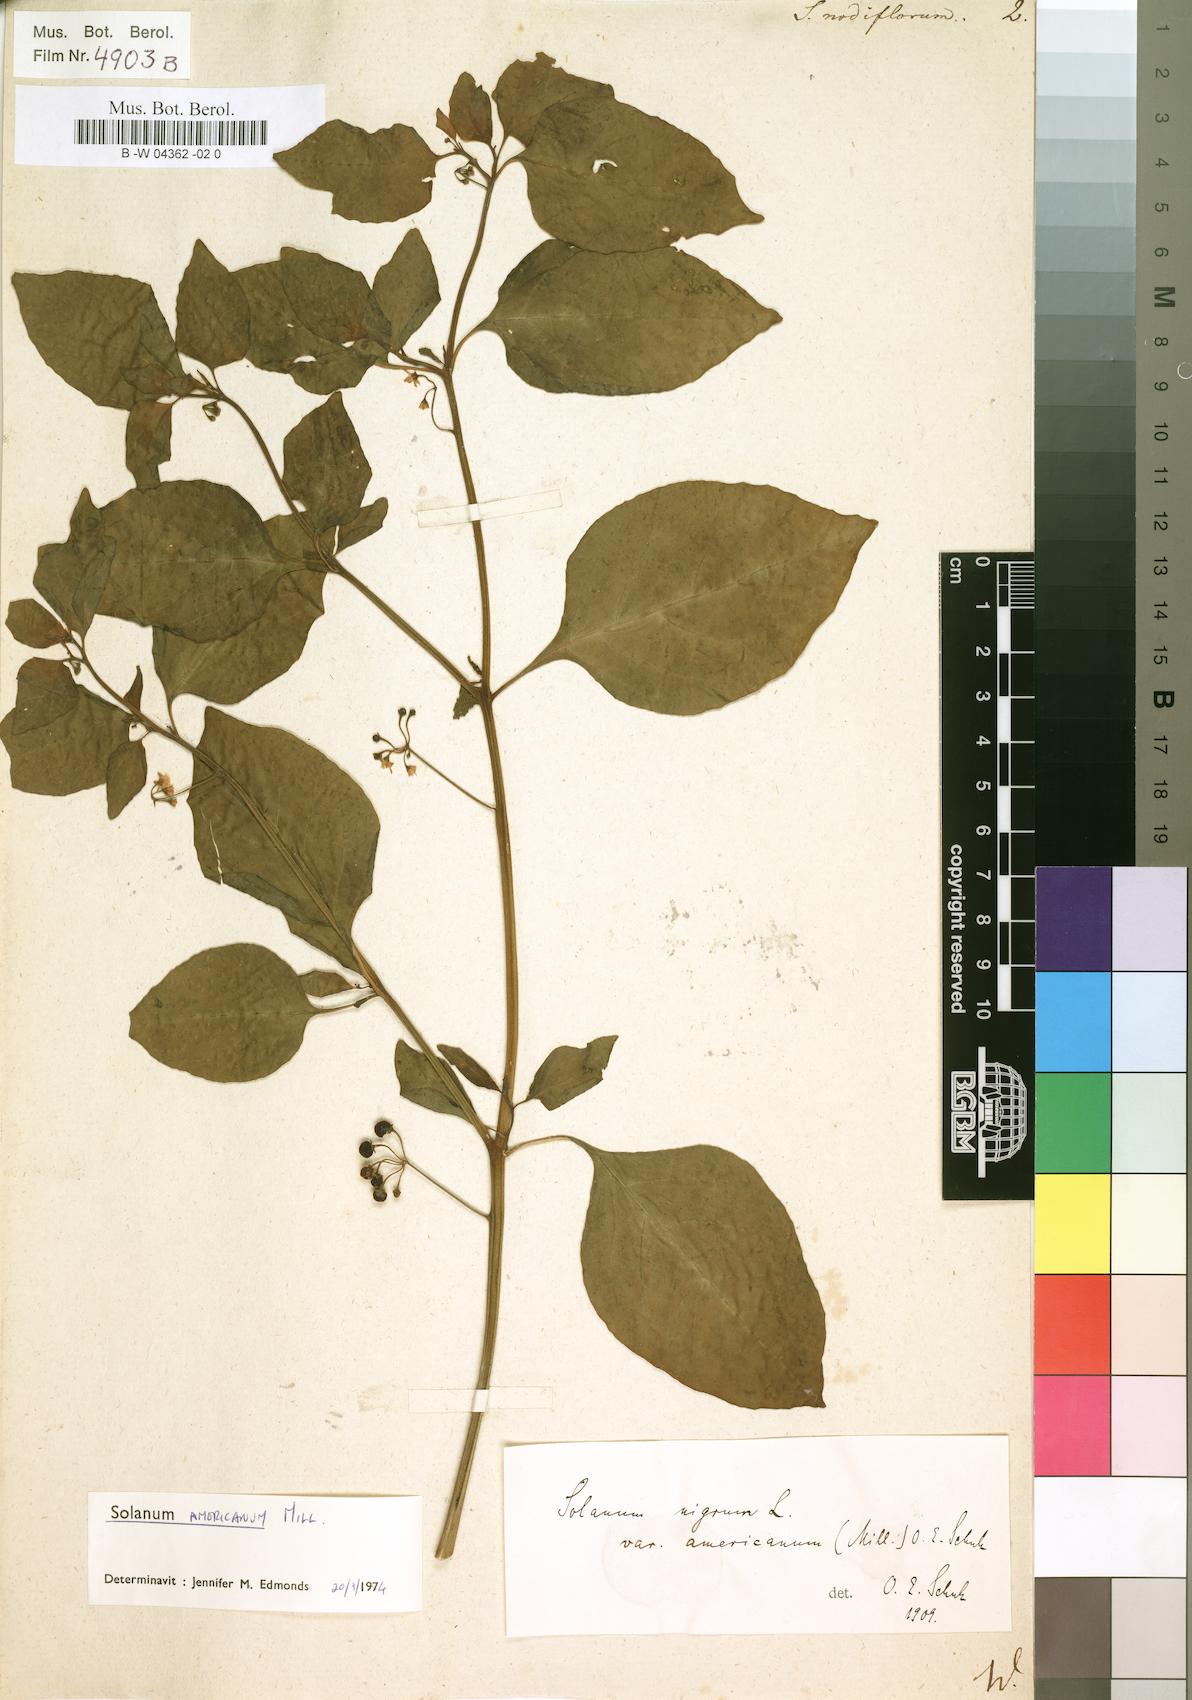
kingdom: Plantae
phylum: Tracheophyta
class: Magnoliopsida
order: Solanales
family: Solanaceae
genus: Solanum
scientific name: Solanum americanum
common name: American black nightshade
